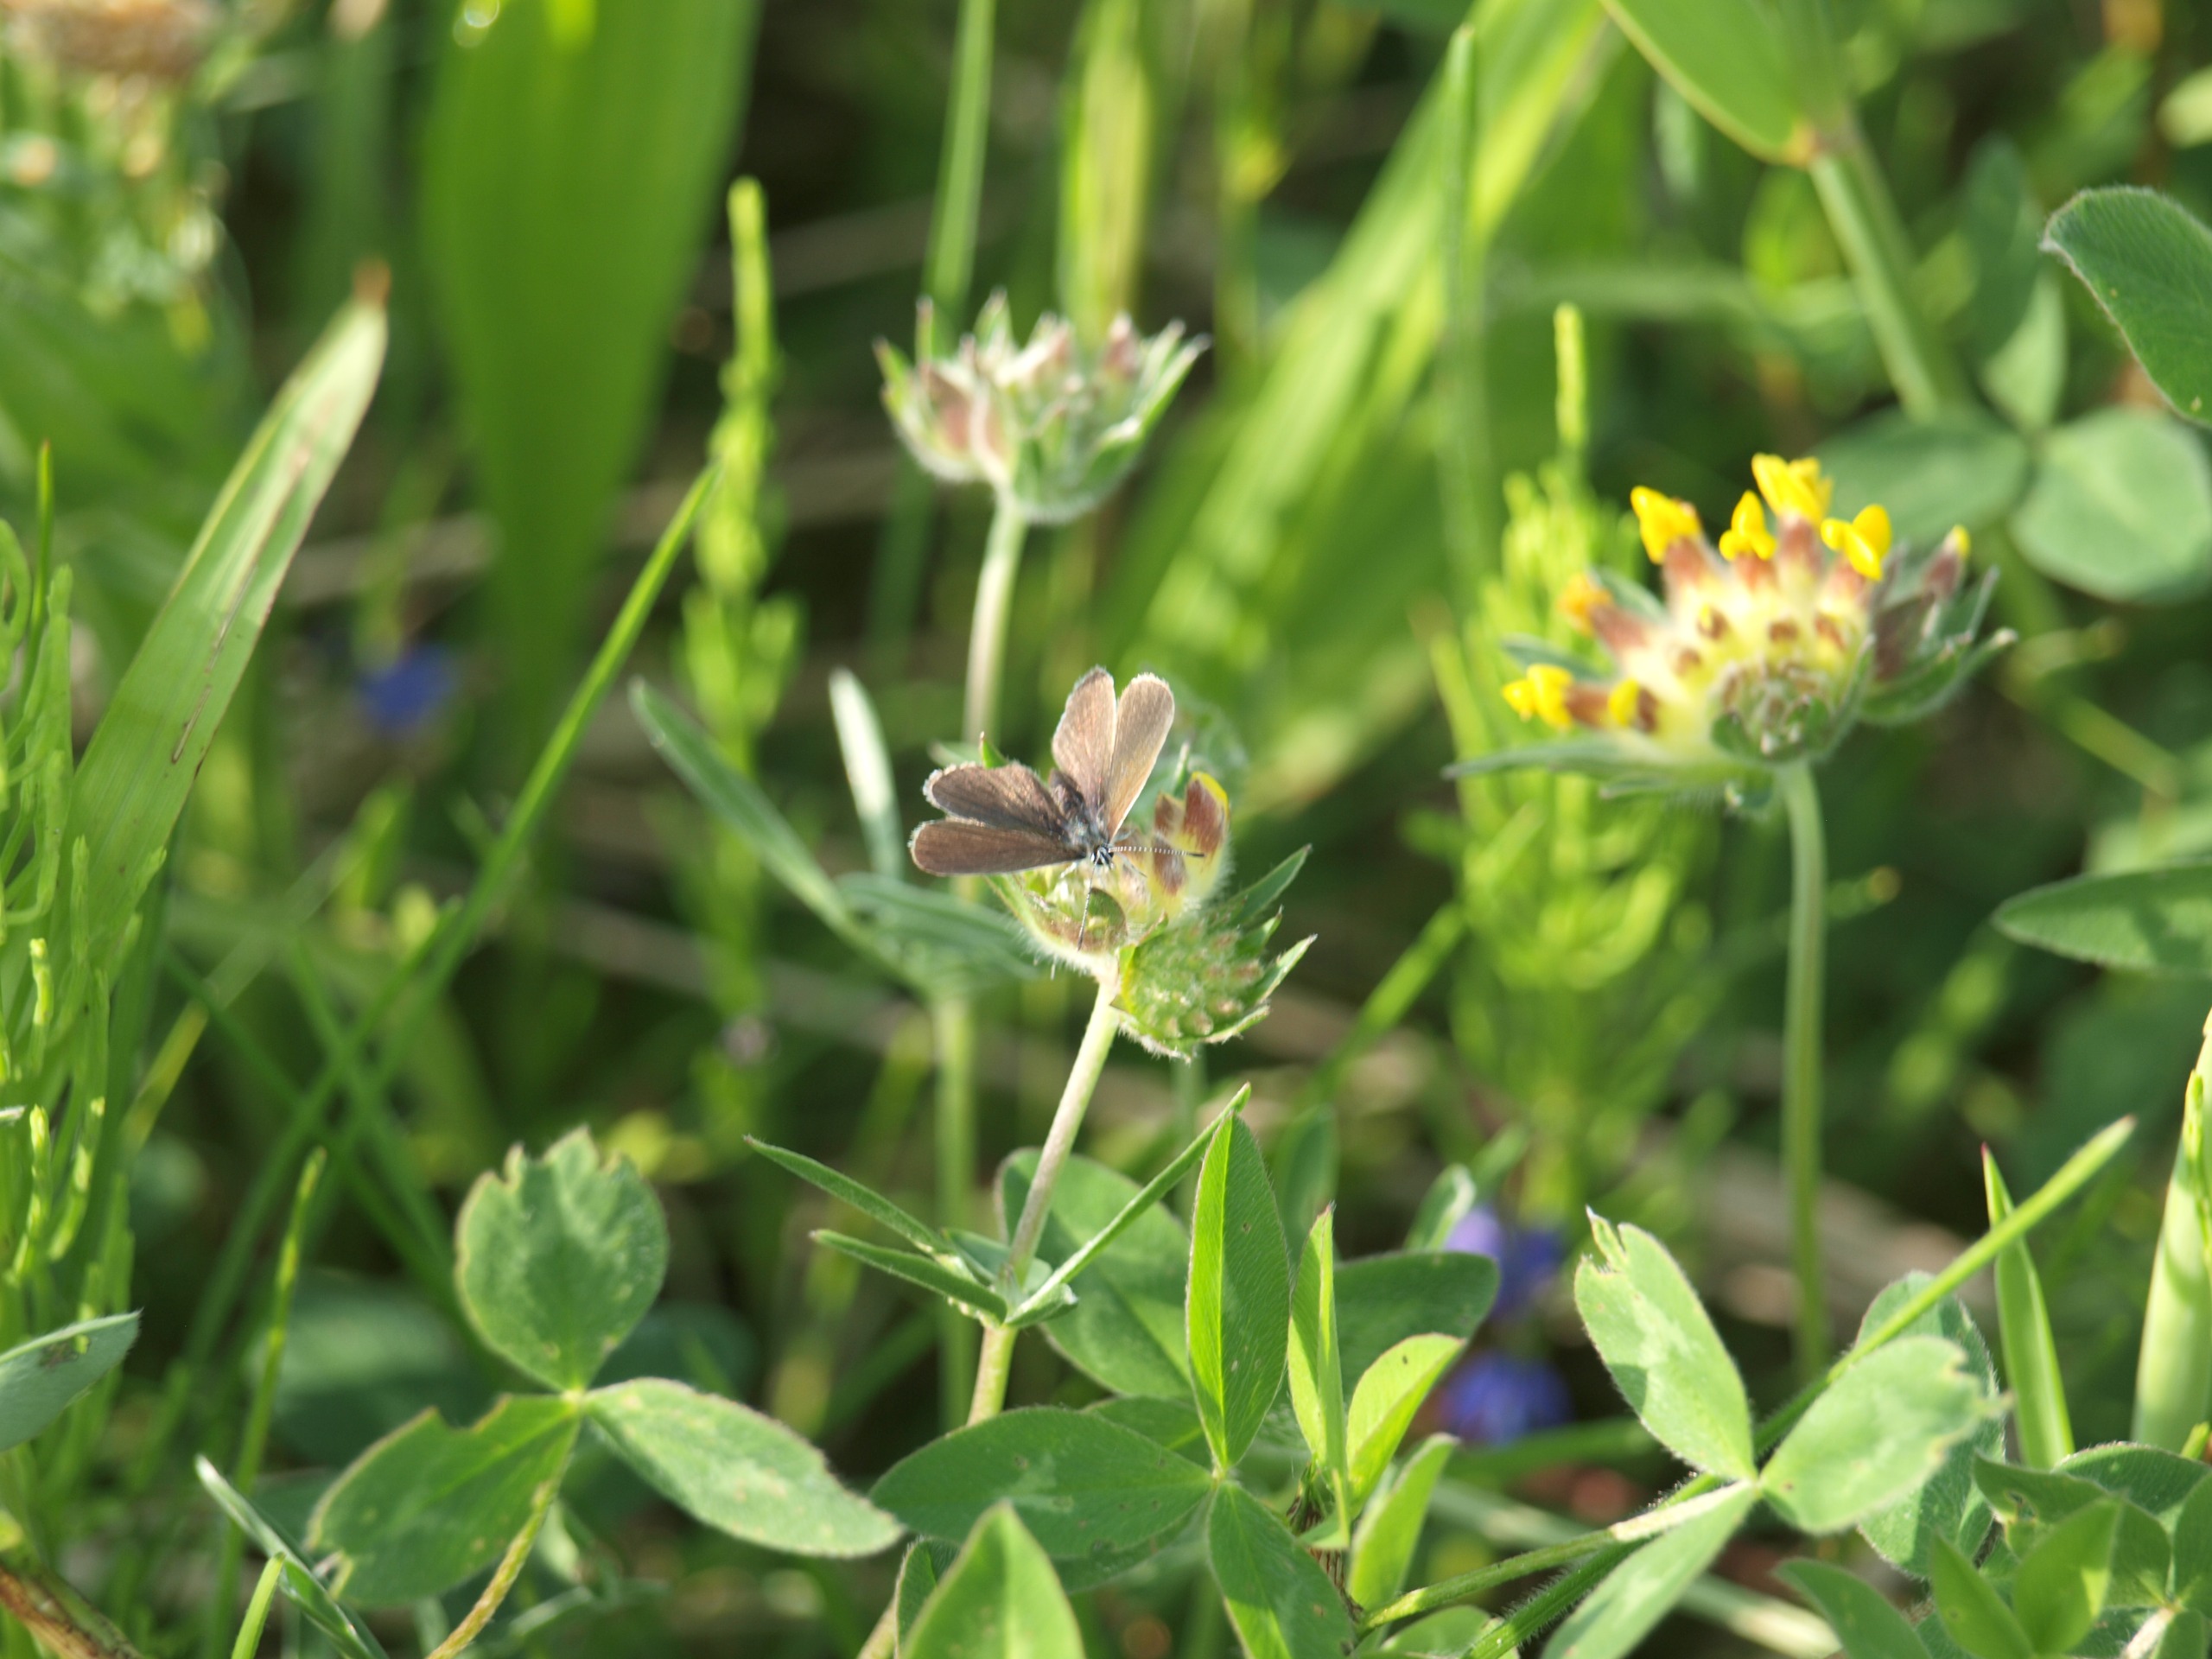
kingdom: Plantae
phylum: Tracheophyta
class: Magnoliopsida
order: Fabales
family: Fabaceae
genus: Anthyllis
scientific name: Anthyllis vulneraria
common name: Rundbælg
